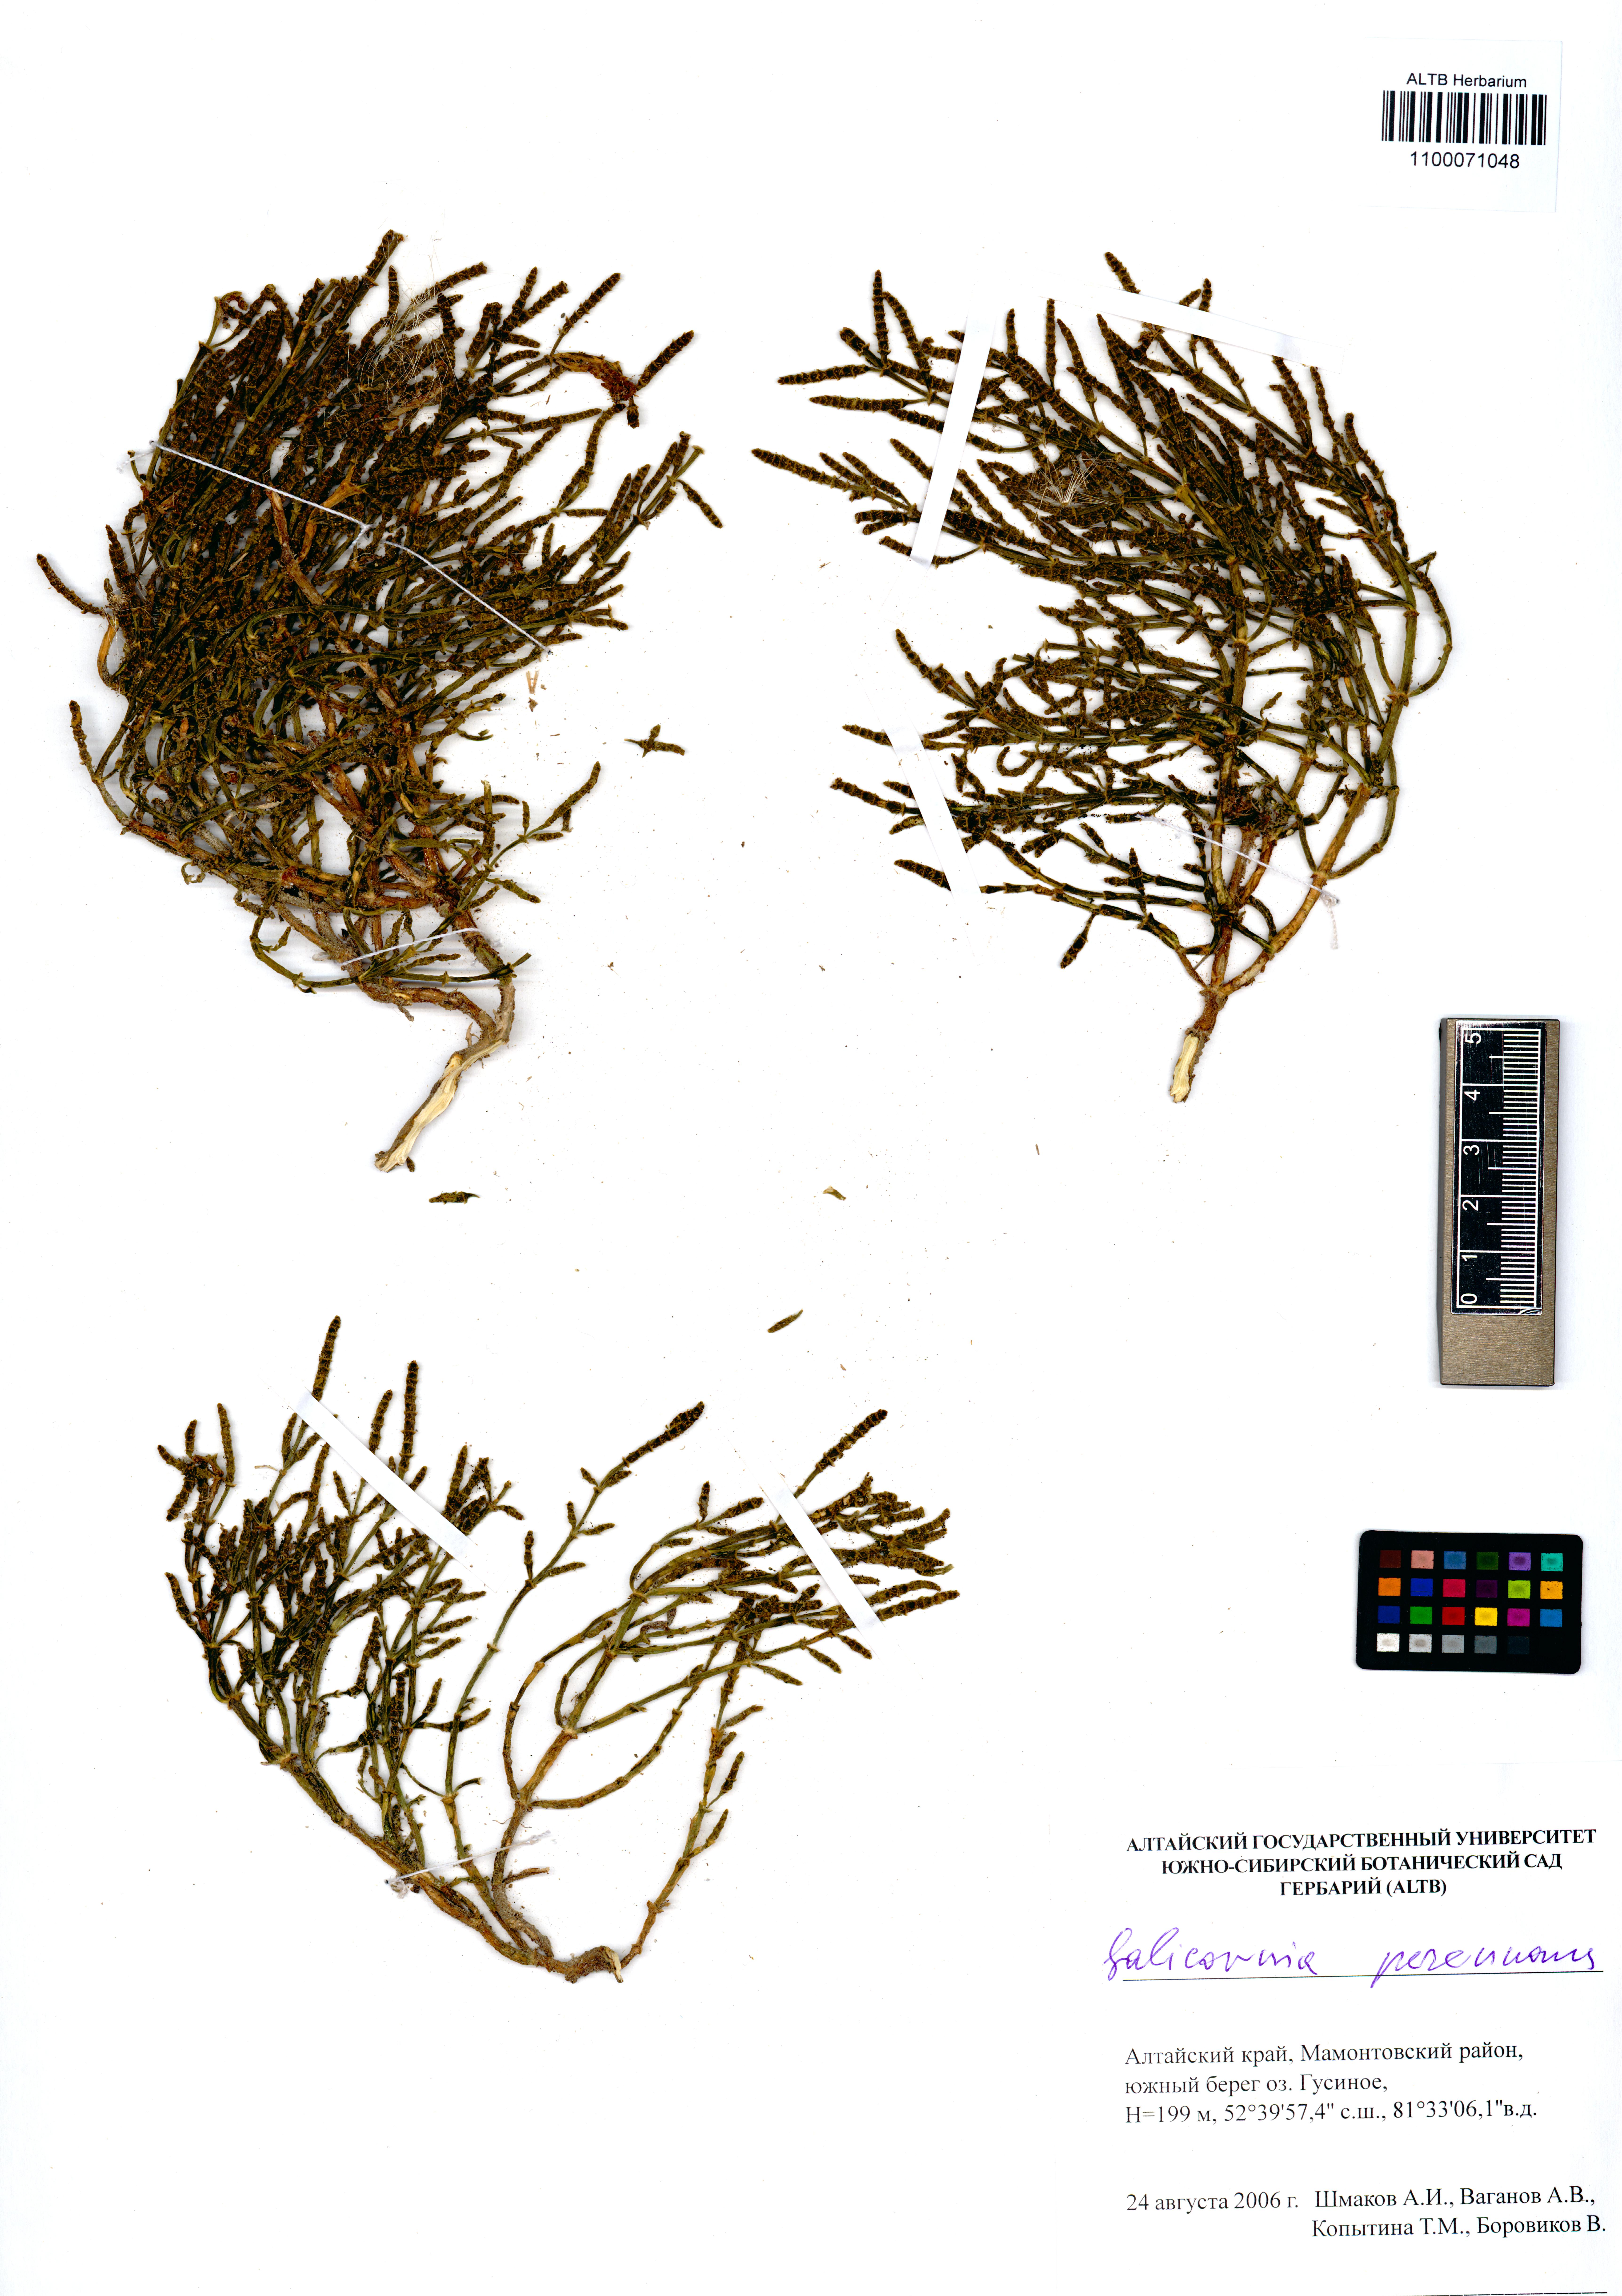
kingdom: Plantae
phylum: Tracheophyta
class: Magnoliopsida
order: Caryophyllales
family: Amaranthaceae
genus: Salicornia
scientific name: Salicornia perennans
